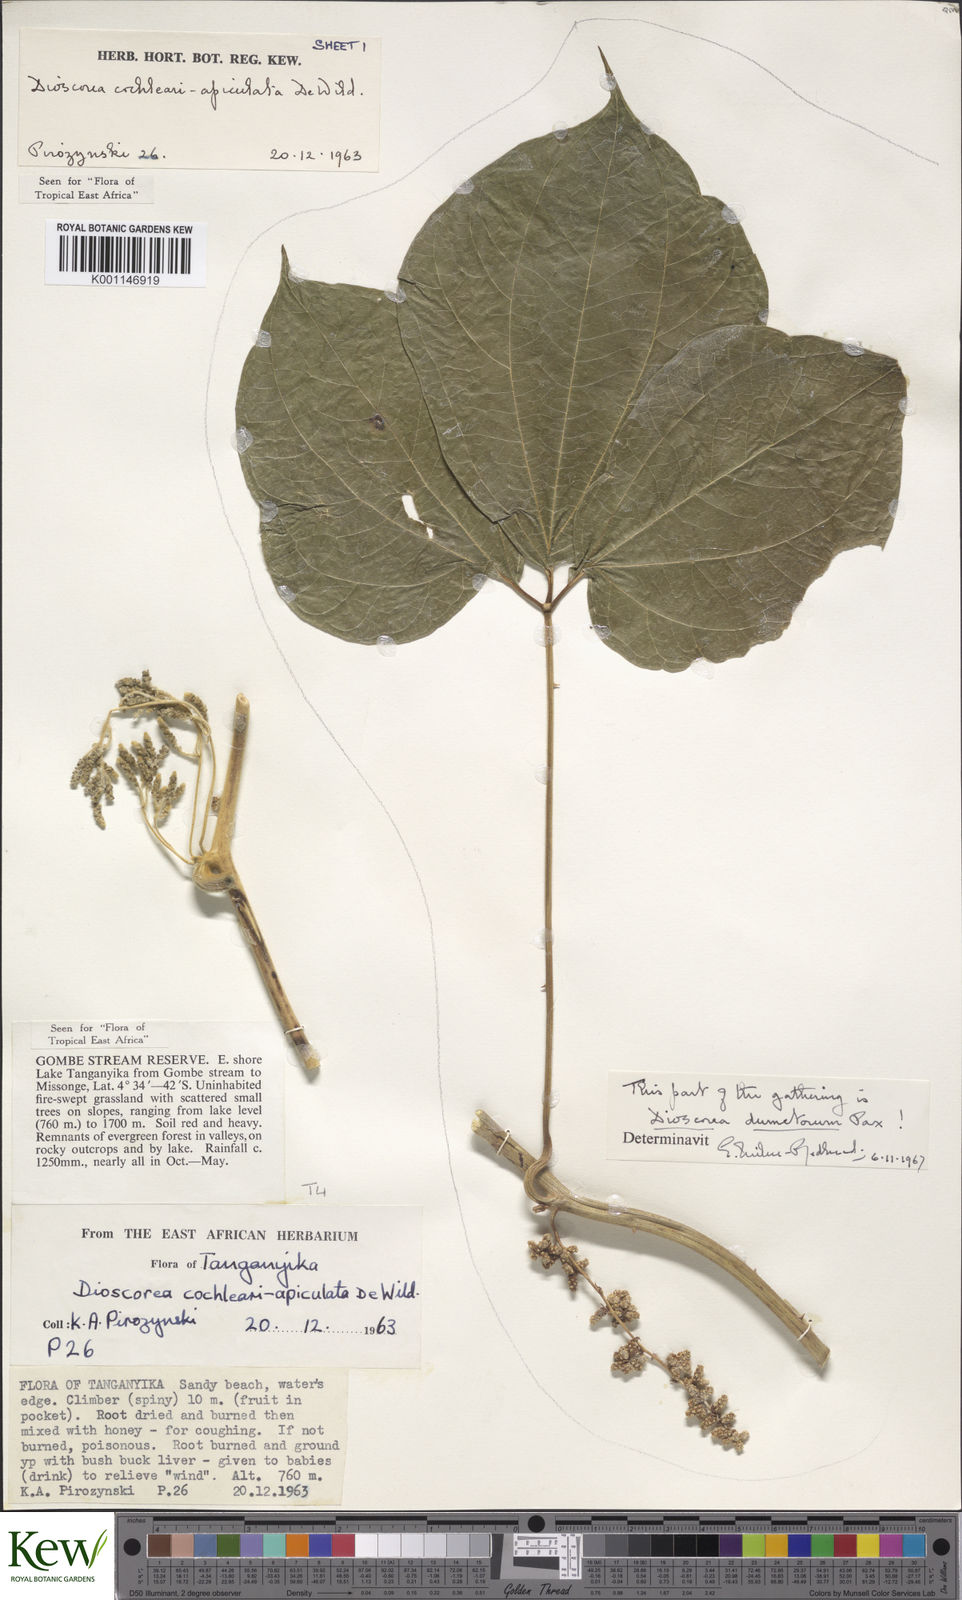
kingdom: Plantae
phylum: Tracheophyta
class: Liliopsida
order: Dioscoreales
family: Dioscoreaceae
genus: Dioscorea
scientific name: Dioscorea cochleariapiculata
